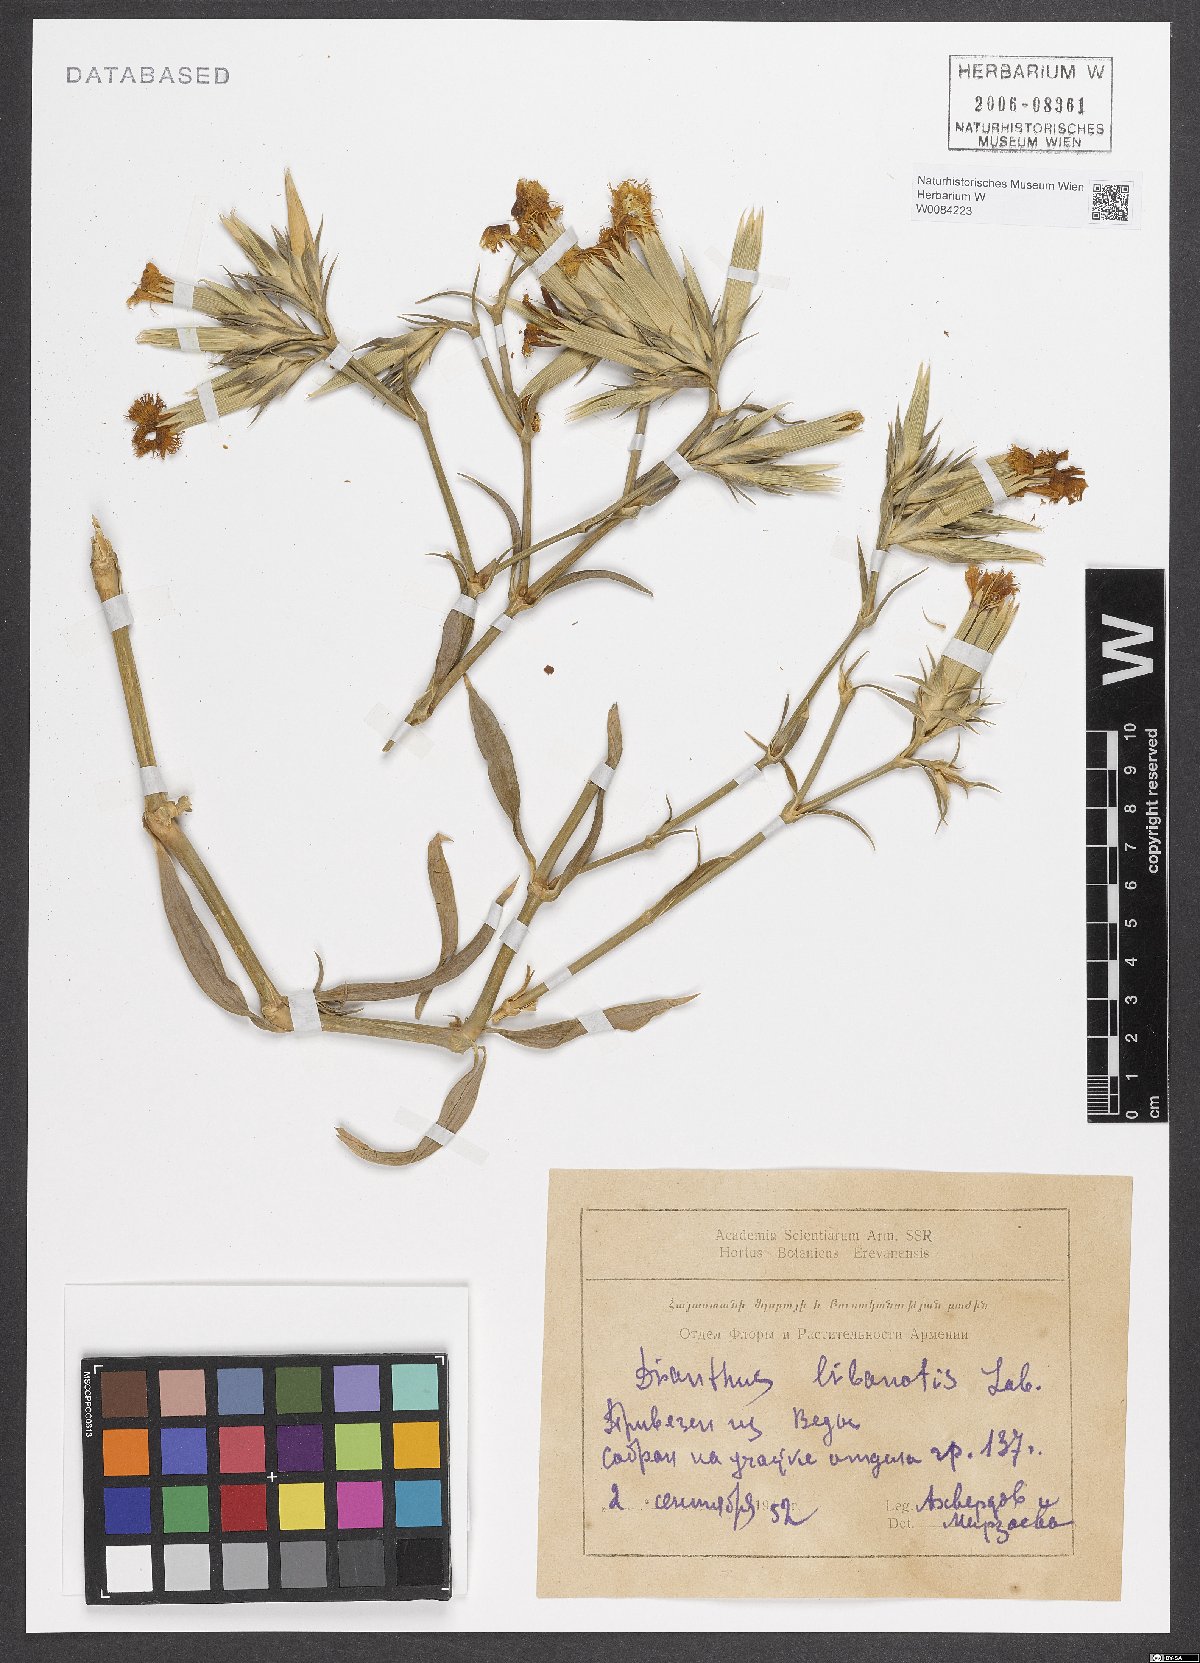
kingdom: Plantae
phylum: Tracheophyta
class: Magnoliopsida
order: Caryophyllales
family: Caryophyllaceae
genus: Dianthus
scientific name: Dianthus libanotis
